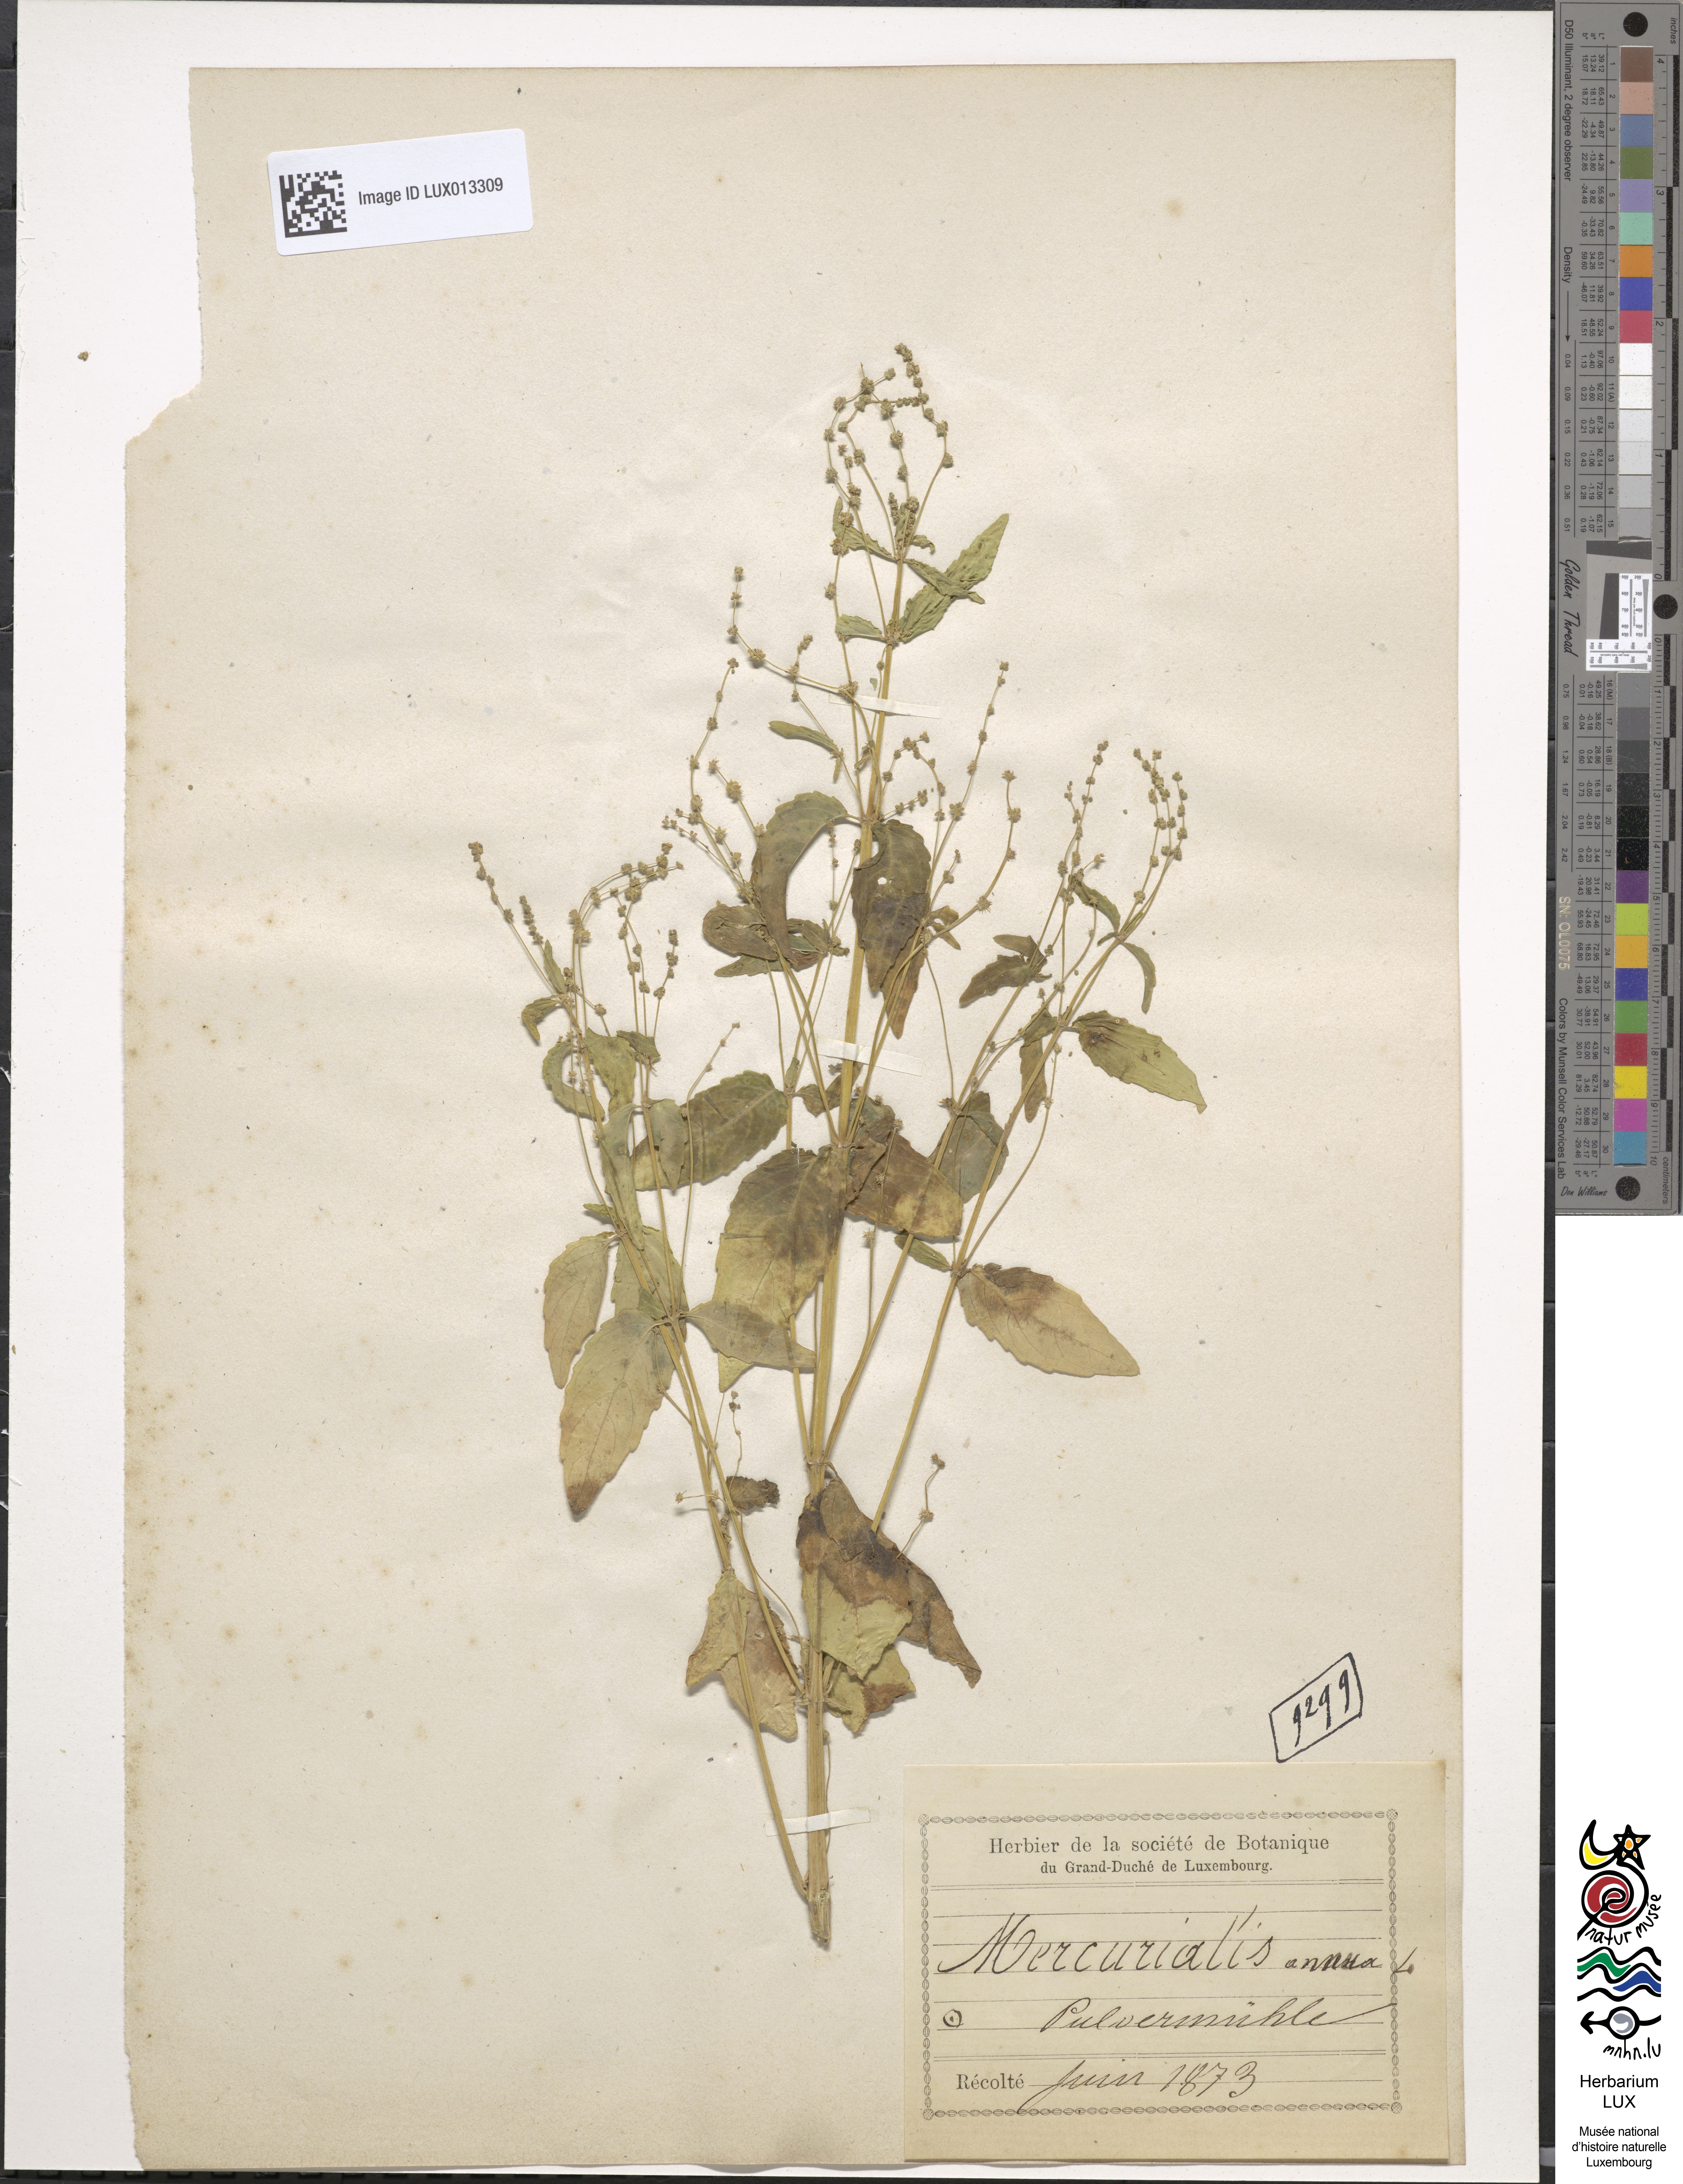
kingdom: Plantae
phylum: Tracheophyta
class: Magnoliopsida
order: Malpighiales
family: Euphorbiaceae
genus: Mercurialis
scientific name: Mercurialis annua
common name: Annual mercury
